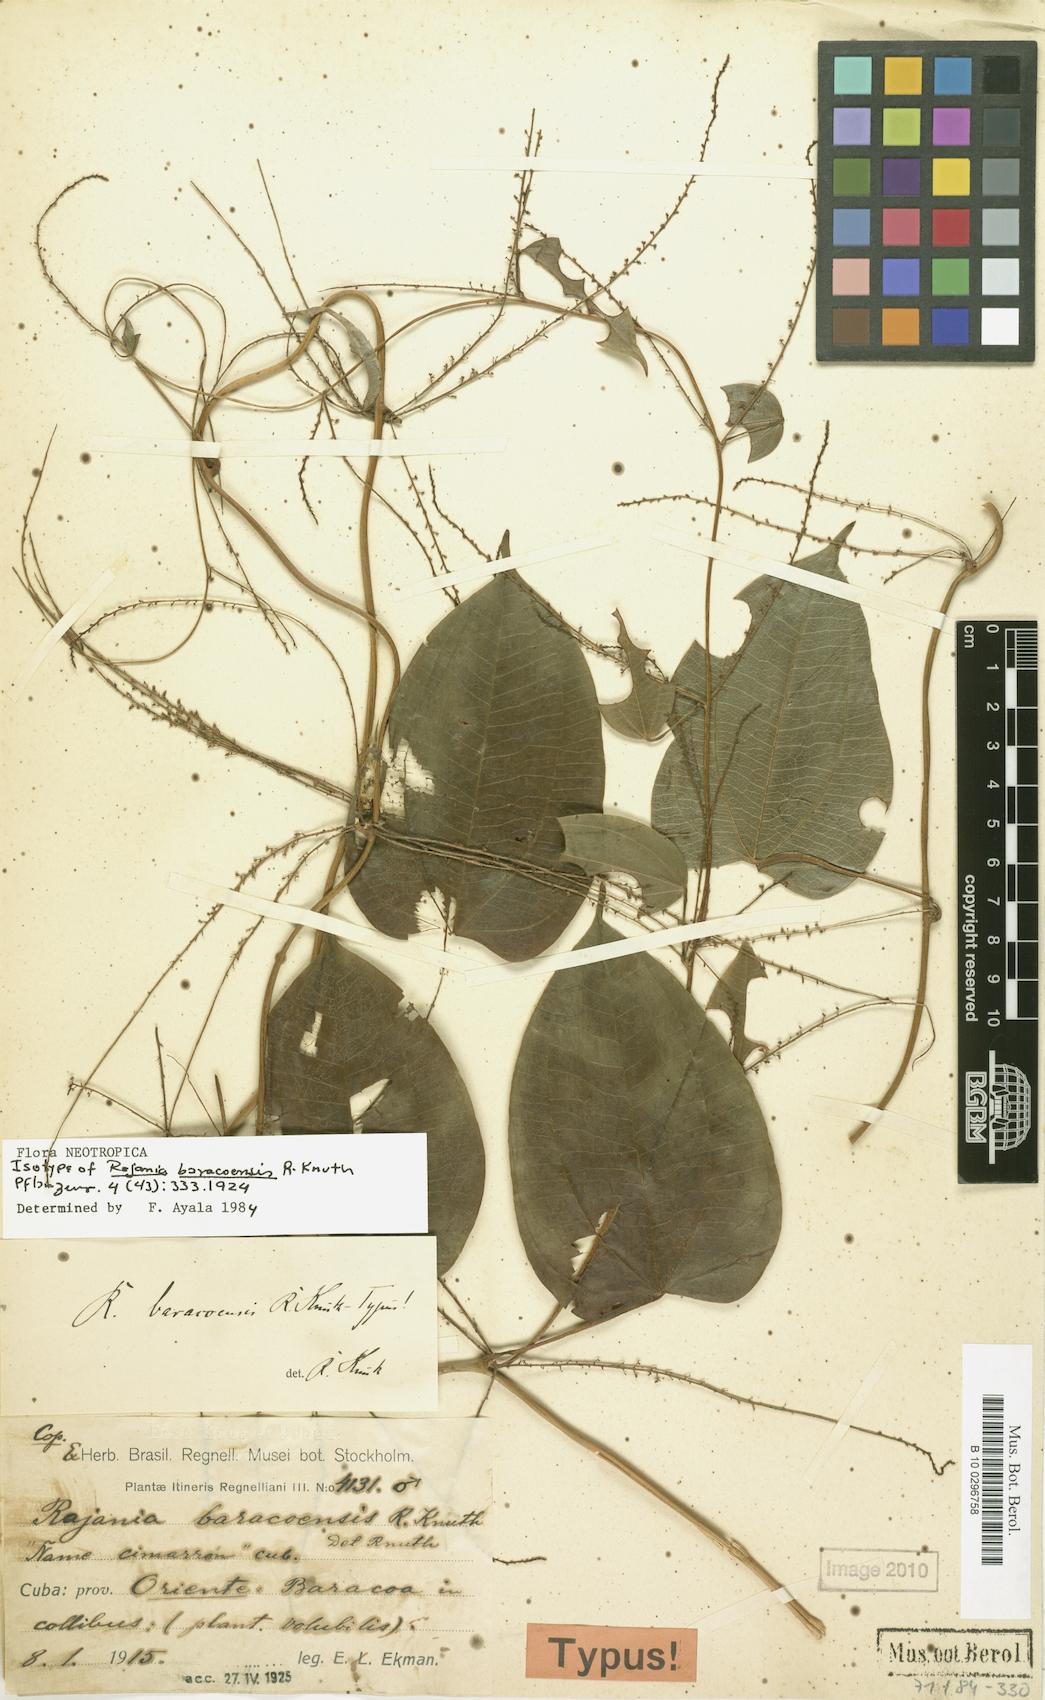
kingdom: Plantae
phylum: Tracheophyta
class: Liliopsida
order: Dioscoreales
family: Dioscoreaceae
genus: Dioscorea
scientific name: Dioscorea baracoensis
